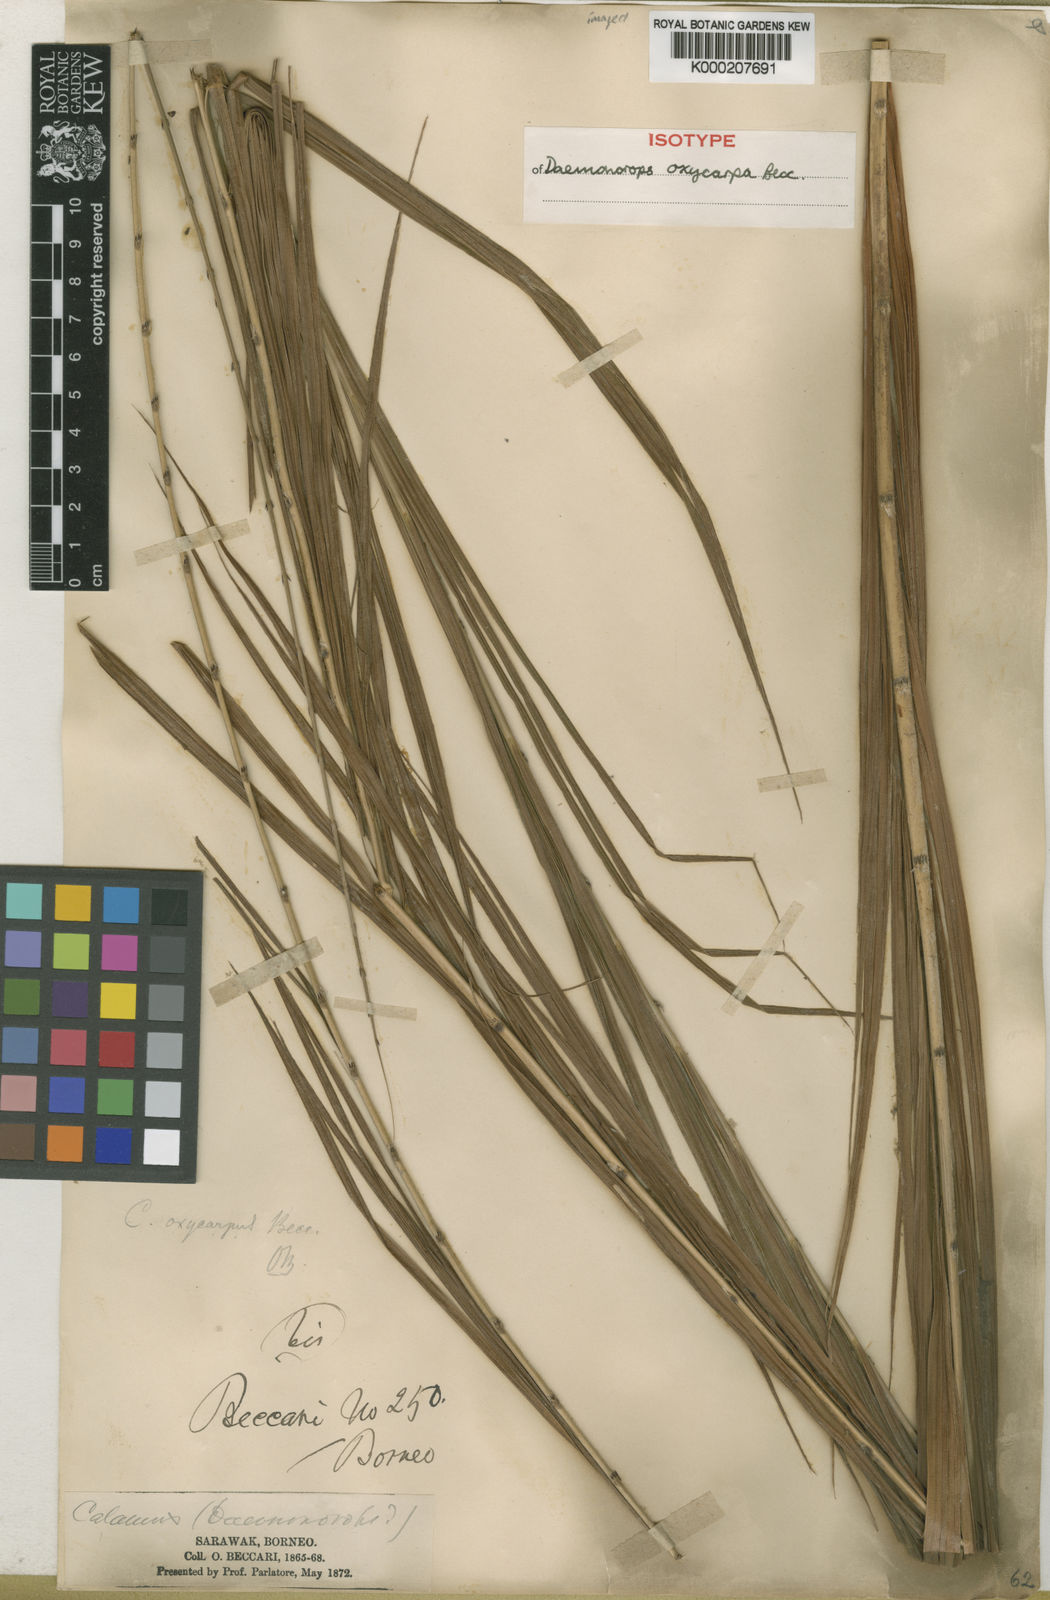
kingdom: Plantae
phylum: Tracheophyta
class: Liliopsida
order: Arecales
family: Arecaceae
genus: Calamus
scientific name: Calamus oxycoccus
